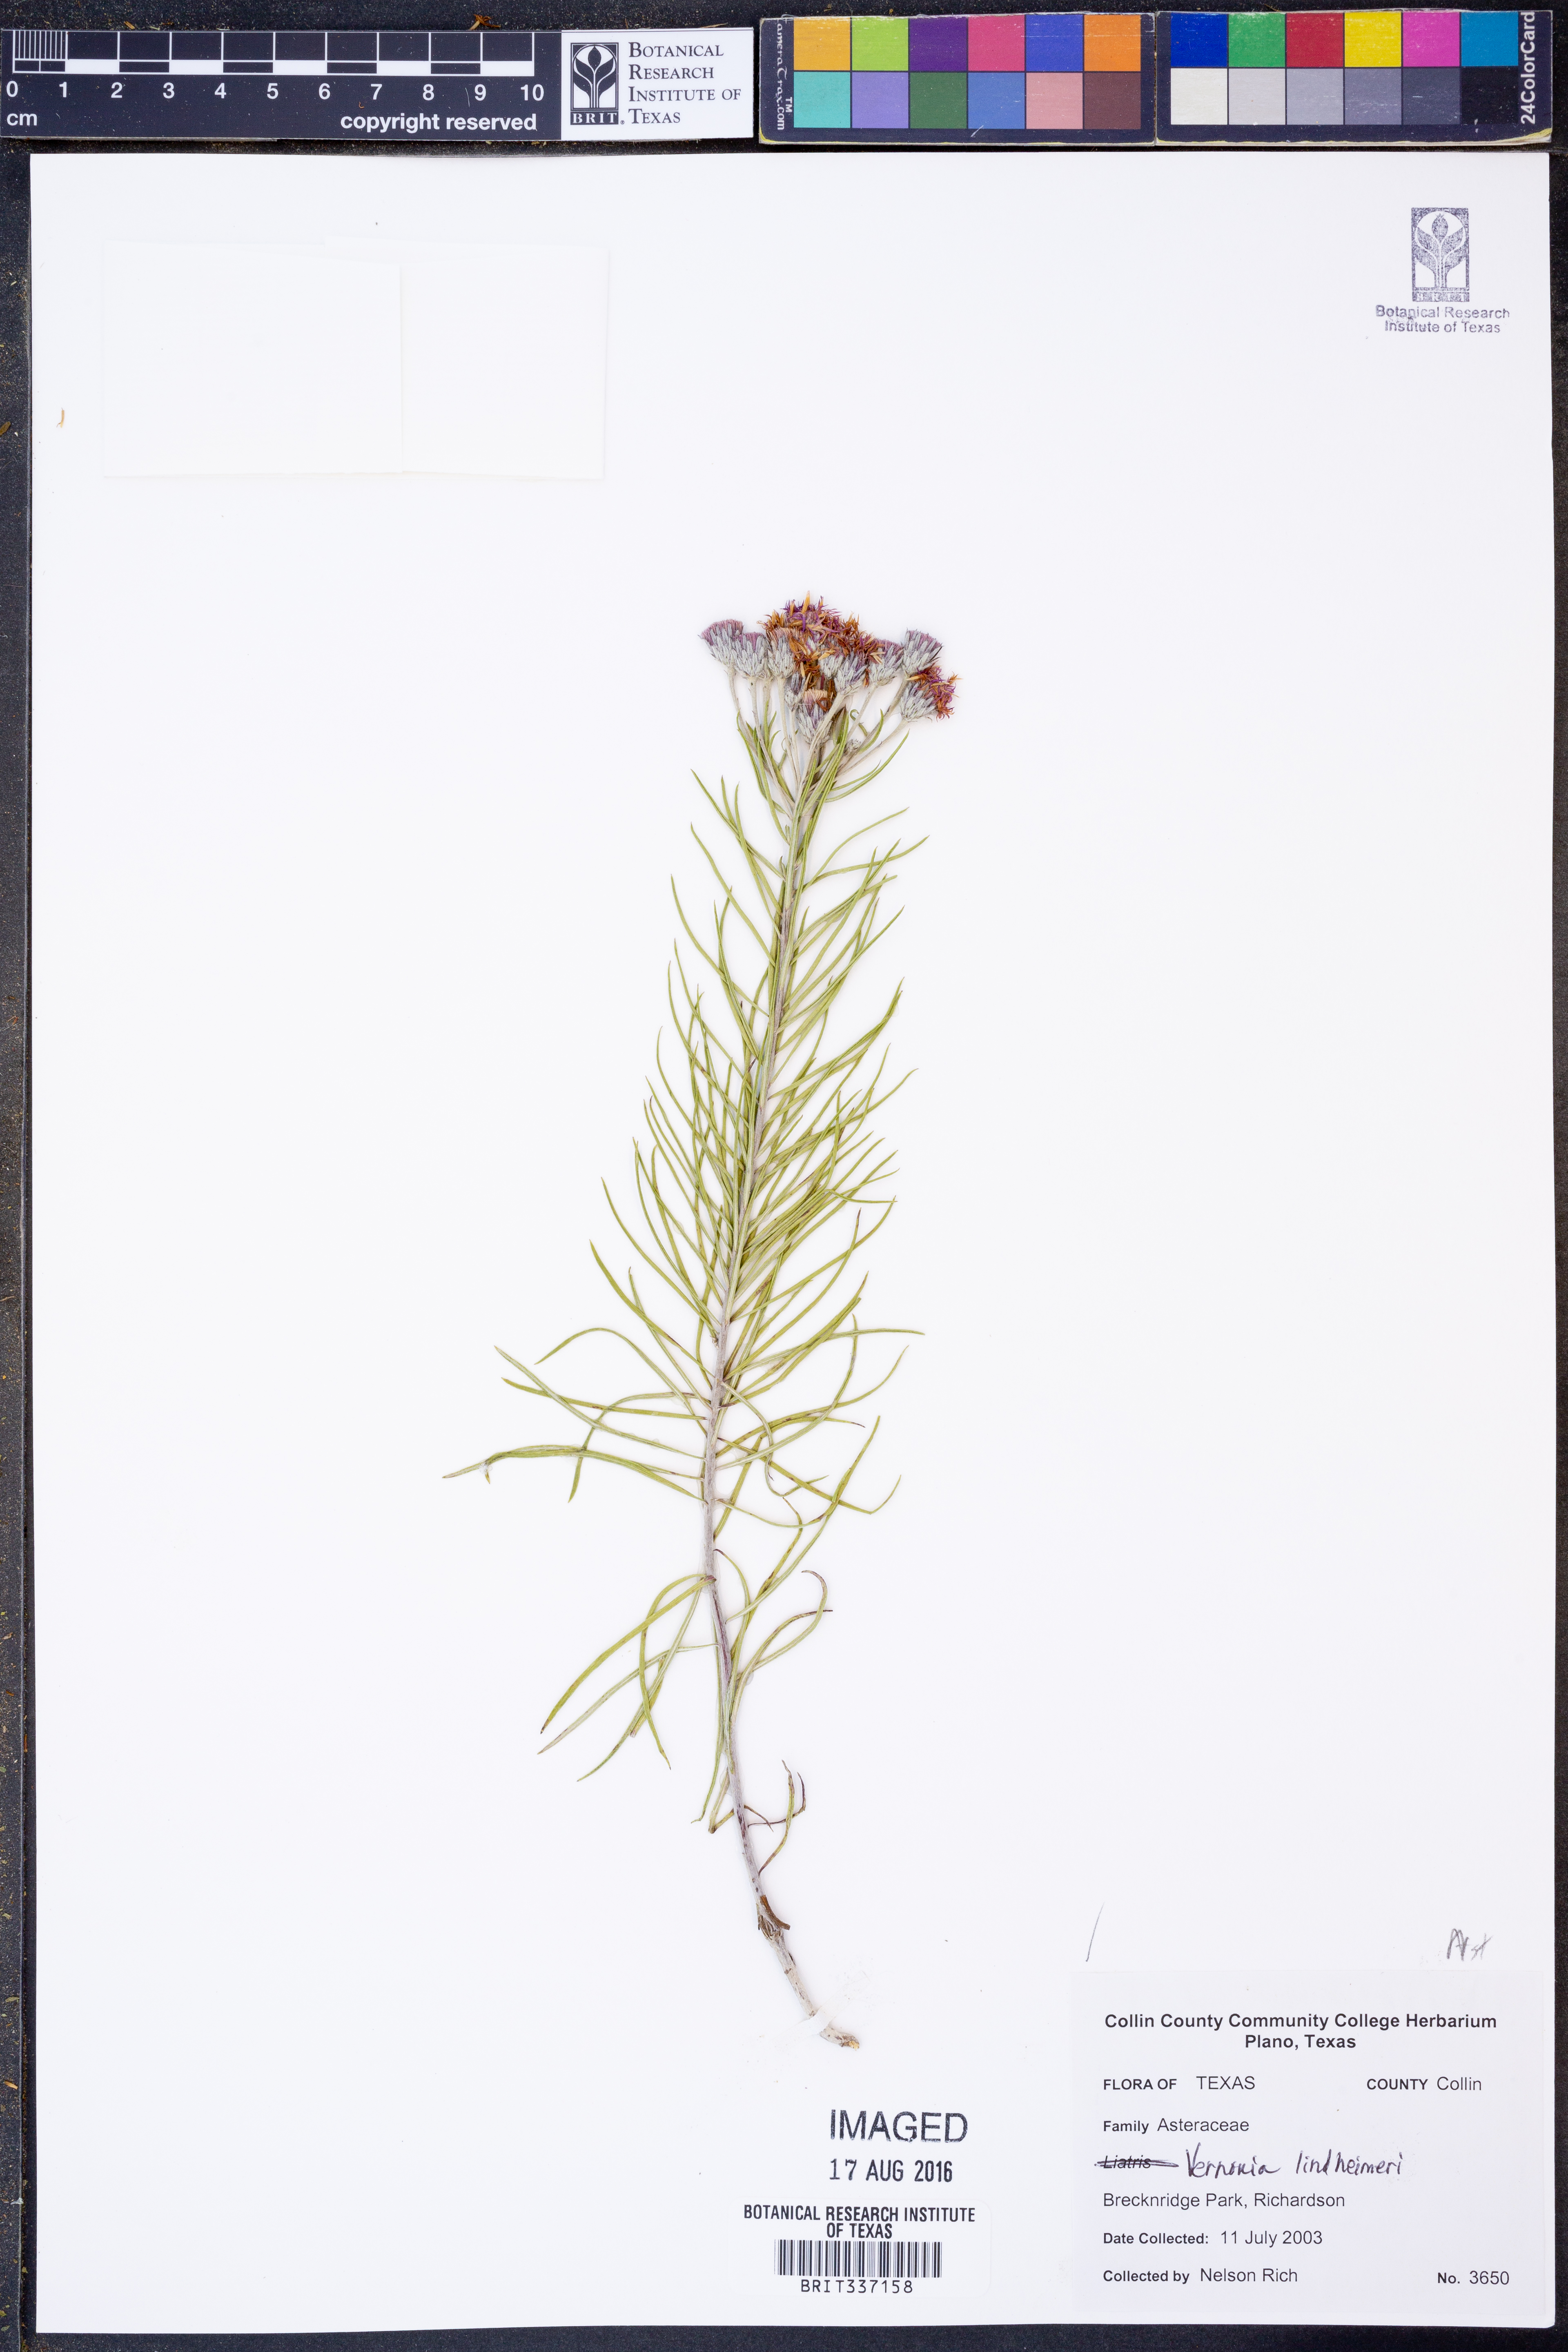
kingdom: Plantae
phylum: Tracheophyta
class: Magnoliopsida
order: Asterales
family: Asteraceae
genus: Vernonia
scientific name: Vernonia lindheimeri
